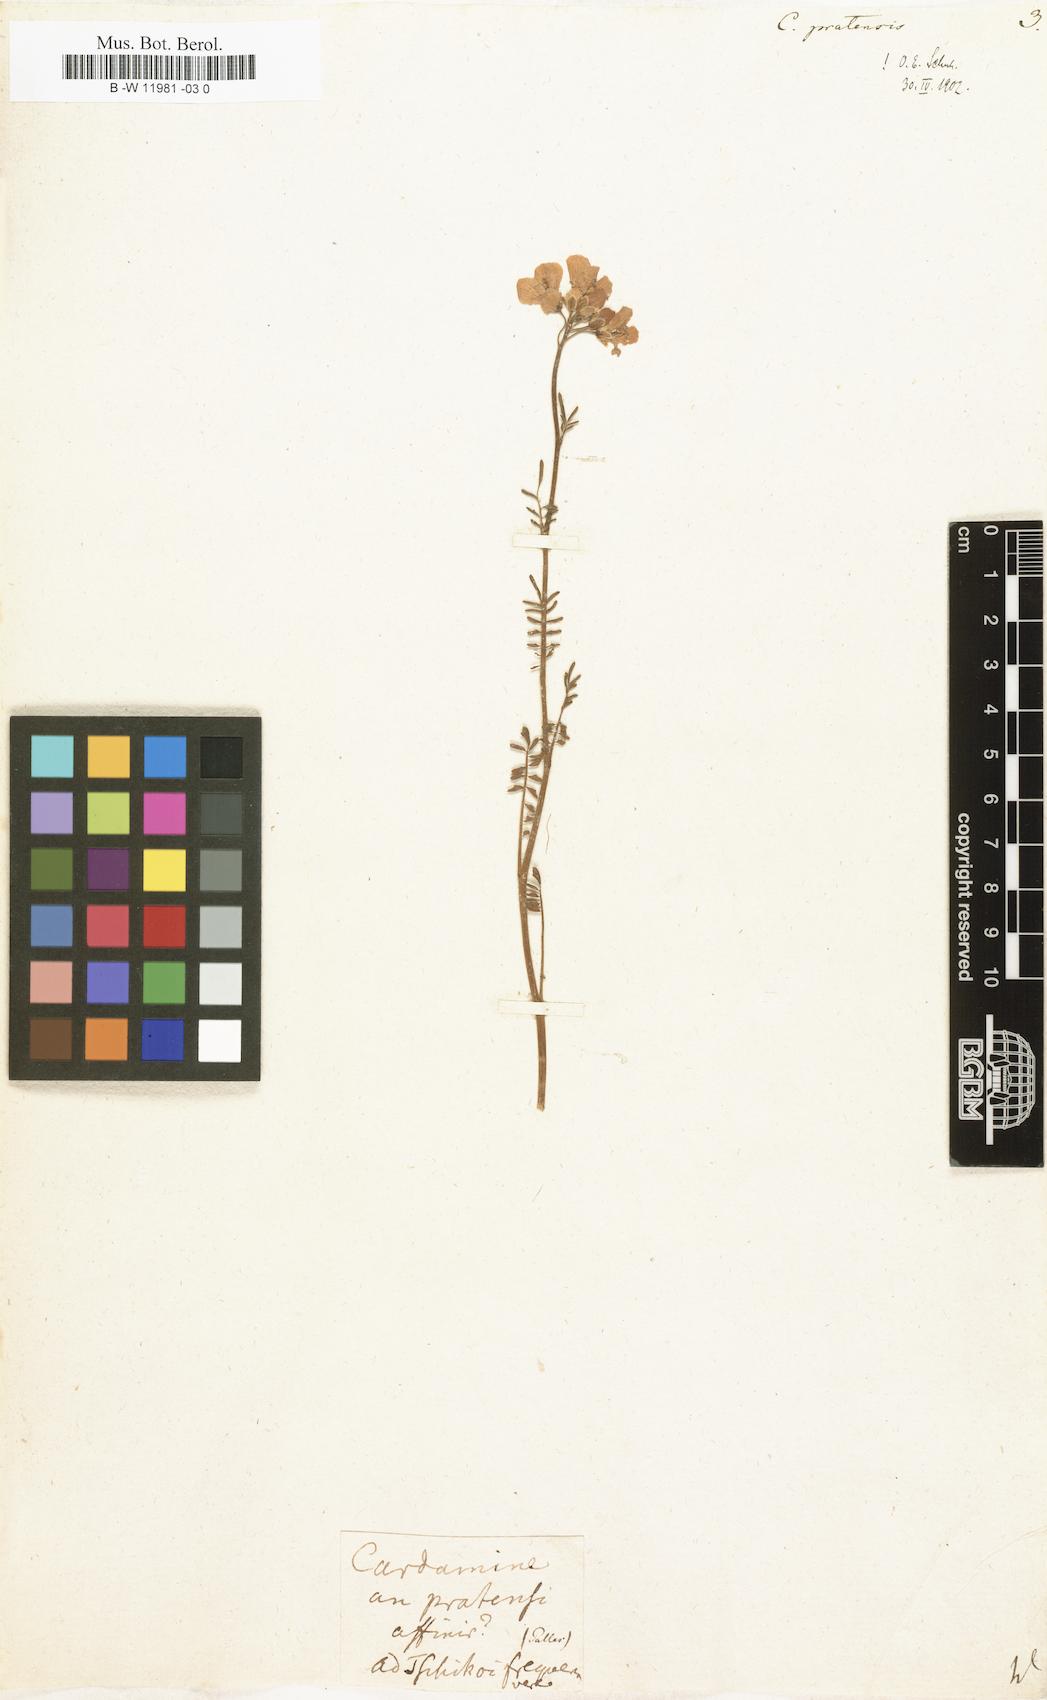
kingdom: Plantae
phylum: Tracheophyta
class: Magnoliopsida
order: Brassicales
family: Brassicaceae
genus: Cardamine
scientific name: Cardamine pratensis
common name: Cuckoo flower
